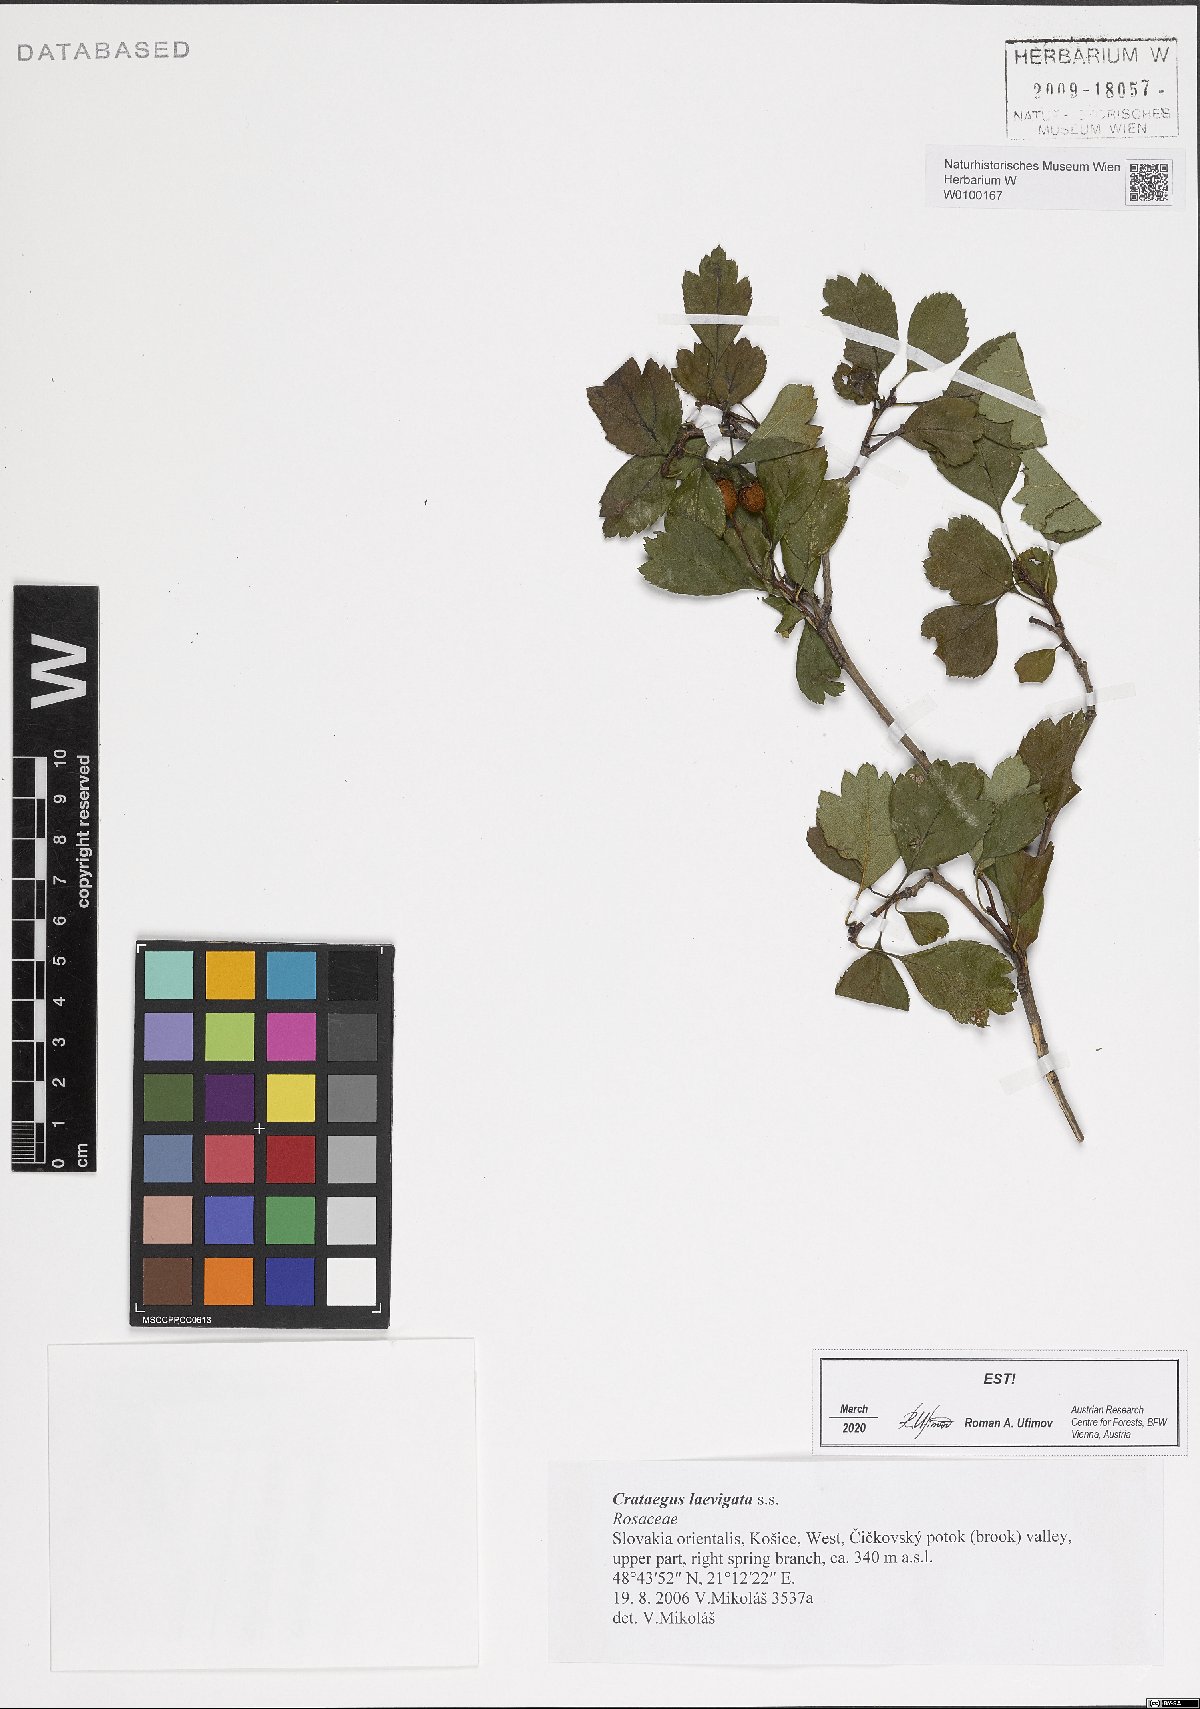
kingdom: Plantae
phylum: Tracheophyta
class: Magnoliopsida
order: Rosales
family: Rosaceae
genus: Crataegus
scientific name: Crataegus laevigata
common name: Midland hawthorn
